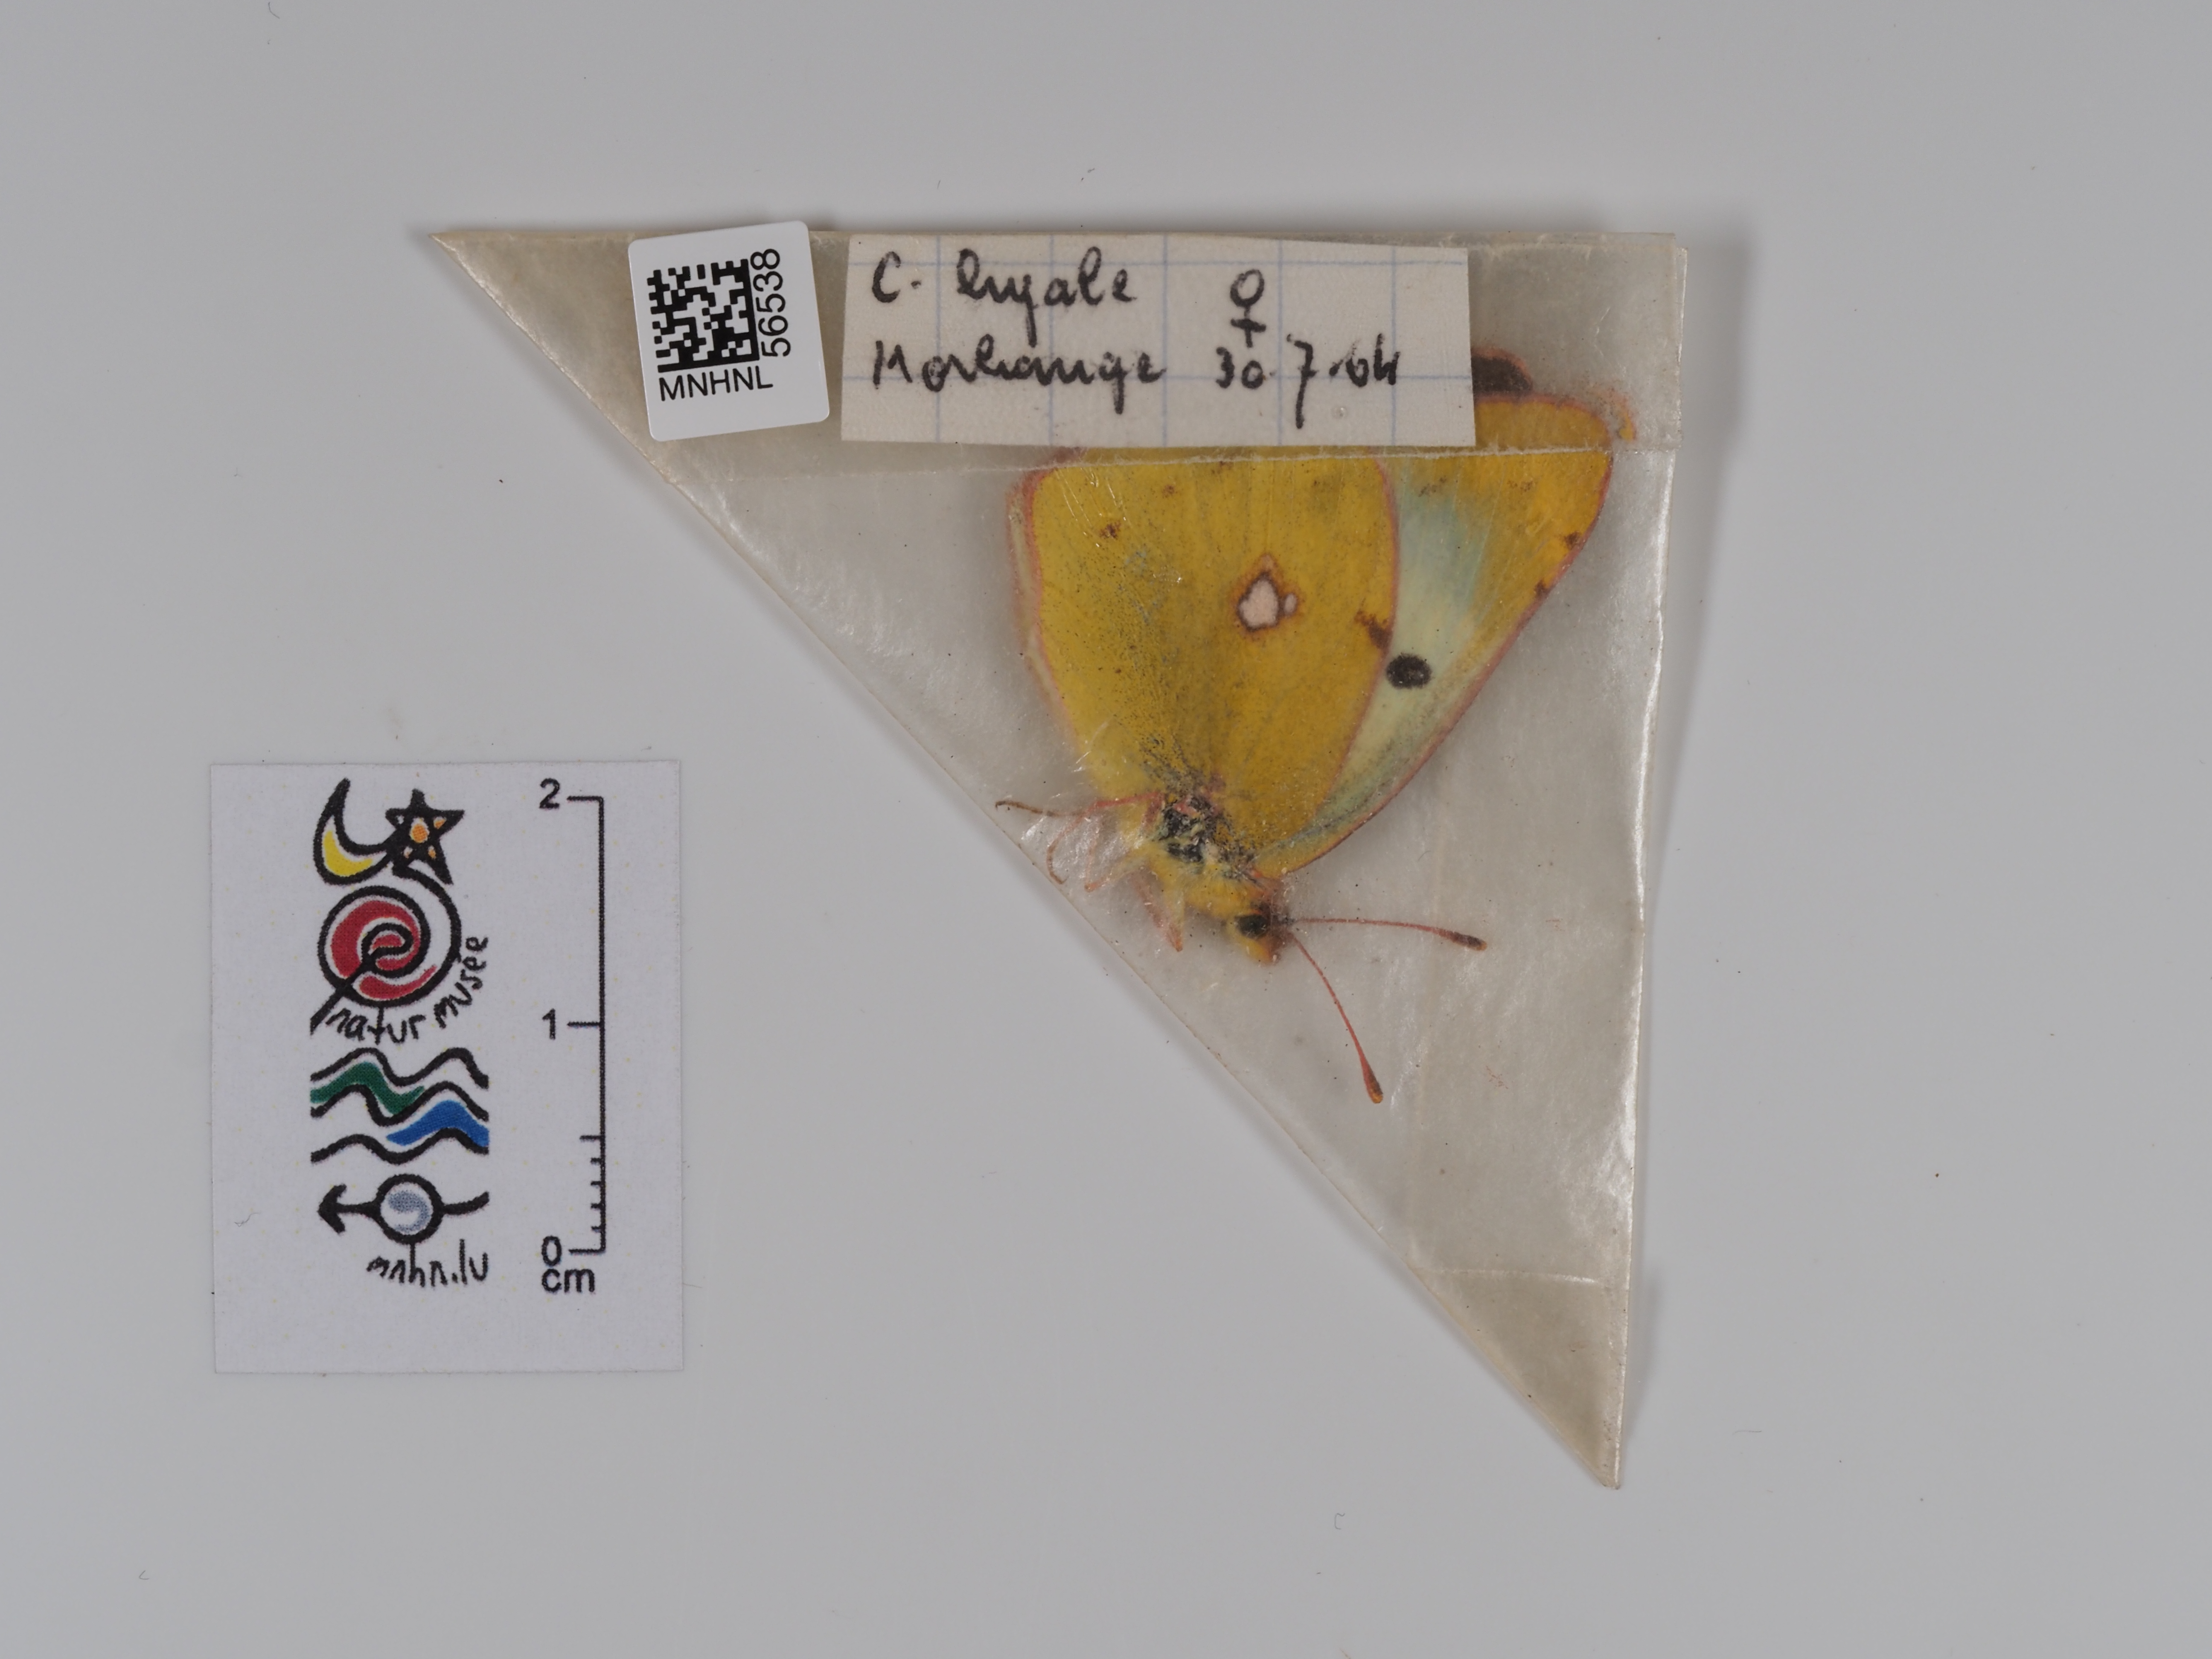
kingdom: Animalia
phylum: Arthropoda
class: Insecta
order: Lepidoptera
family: Pieridae
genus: Colias
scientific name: Colias hyale
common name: Pale clouded yellow
